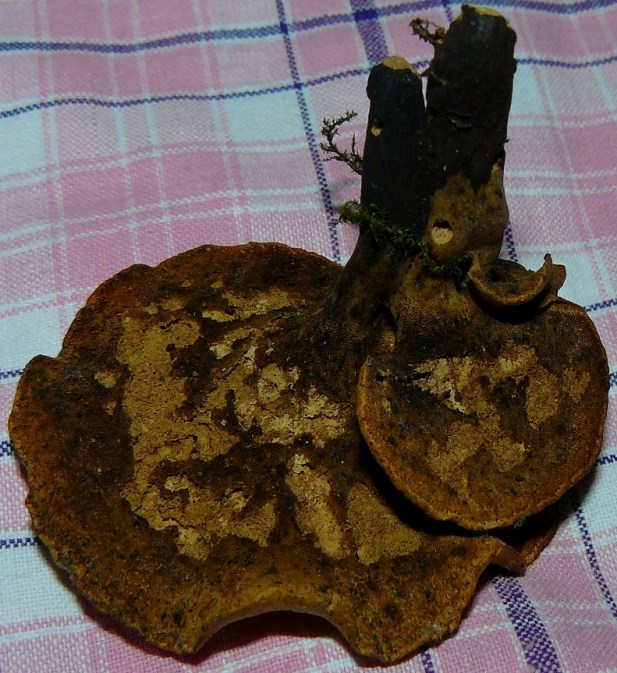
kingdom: Fungi
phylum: Basidiomycota
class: Agaricomycetes
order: Polyporales
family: Polyporaceae
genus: Cerioporus
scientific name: Cerioporus varius
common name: foranderlig stilkporesvamp
